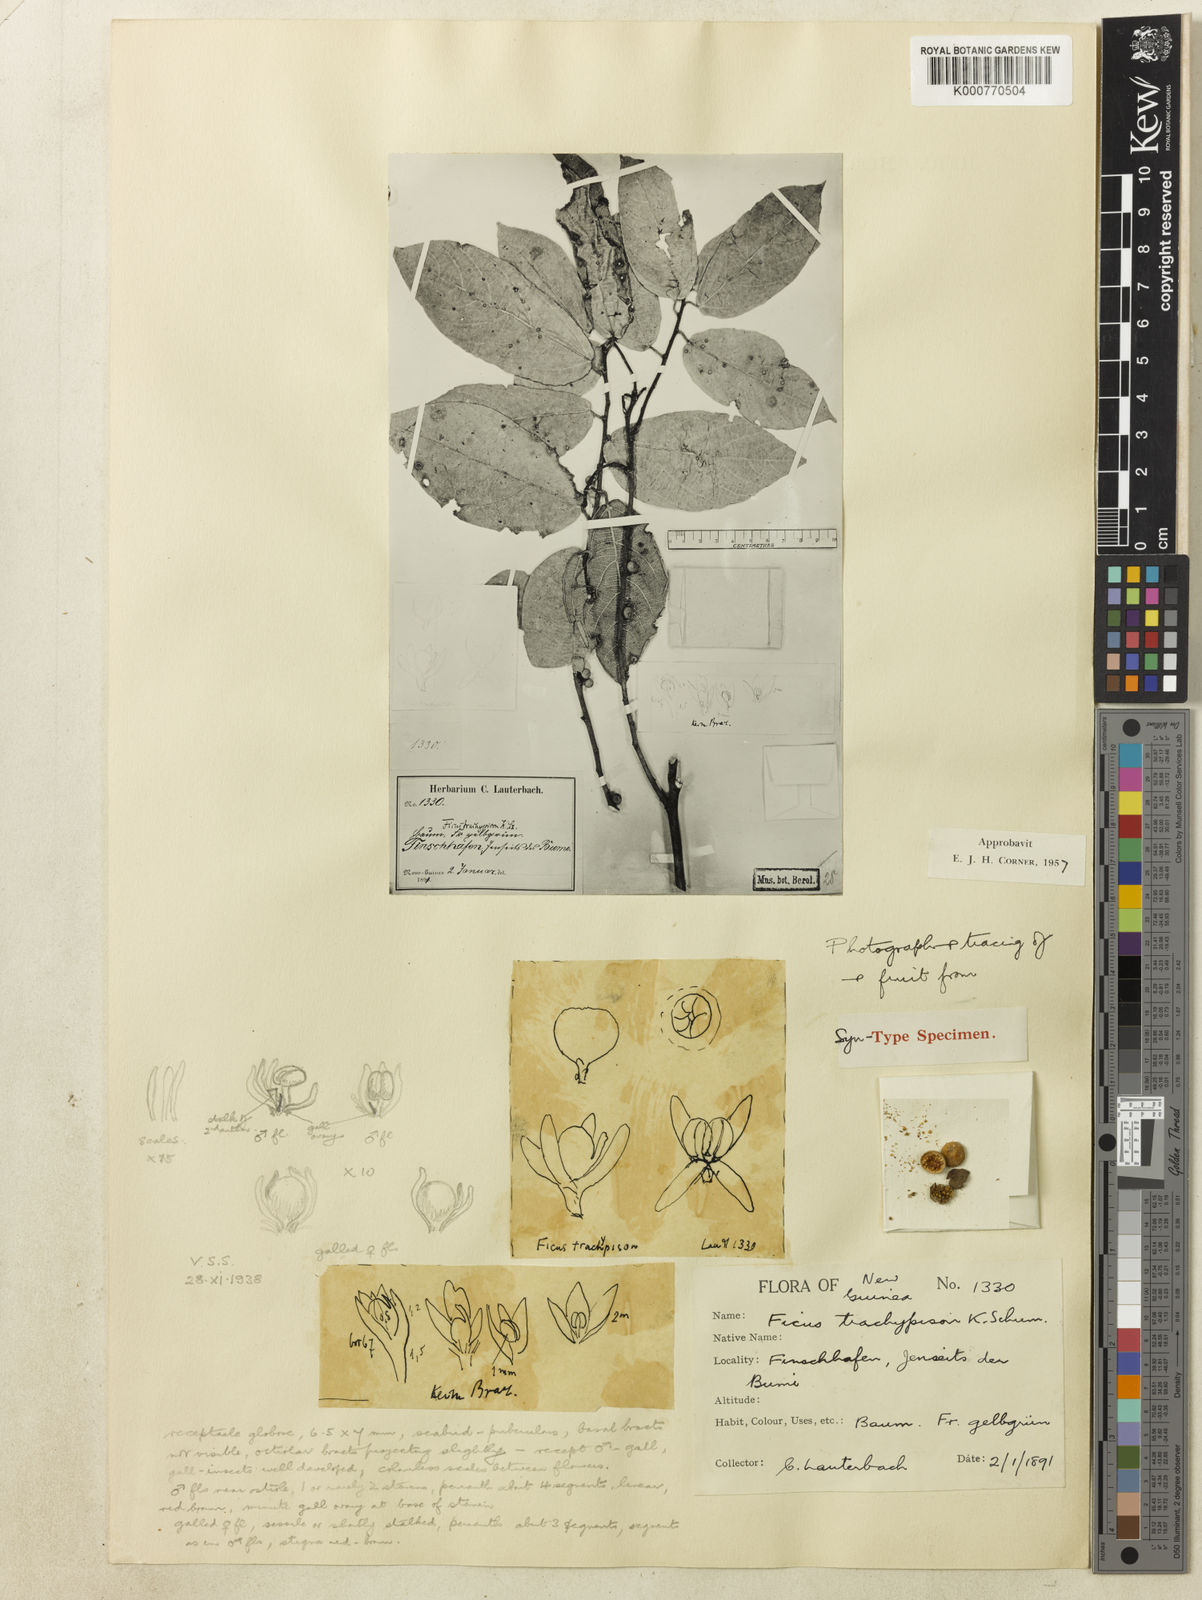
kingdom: Plantae
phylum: Tracheophyta
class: Magnoliopsida
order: Rosales
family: Moraceae
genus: Ficus
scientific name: Ficus trachypison
